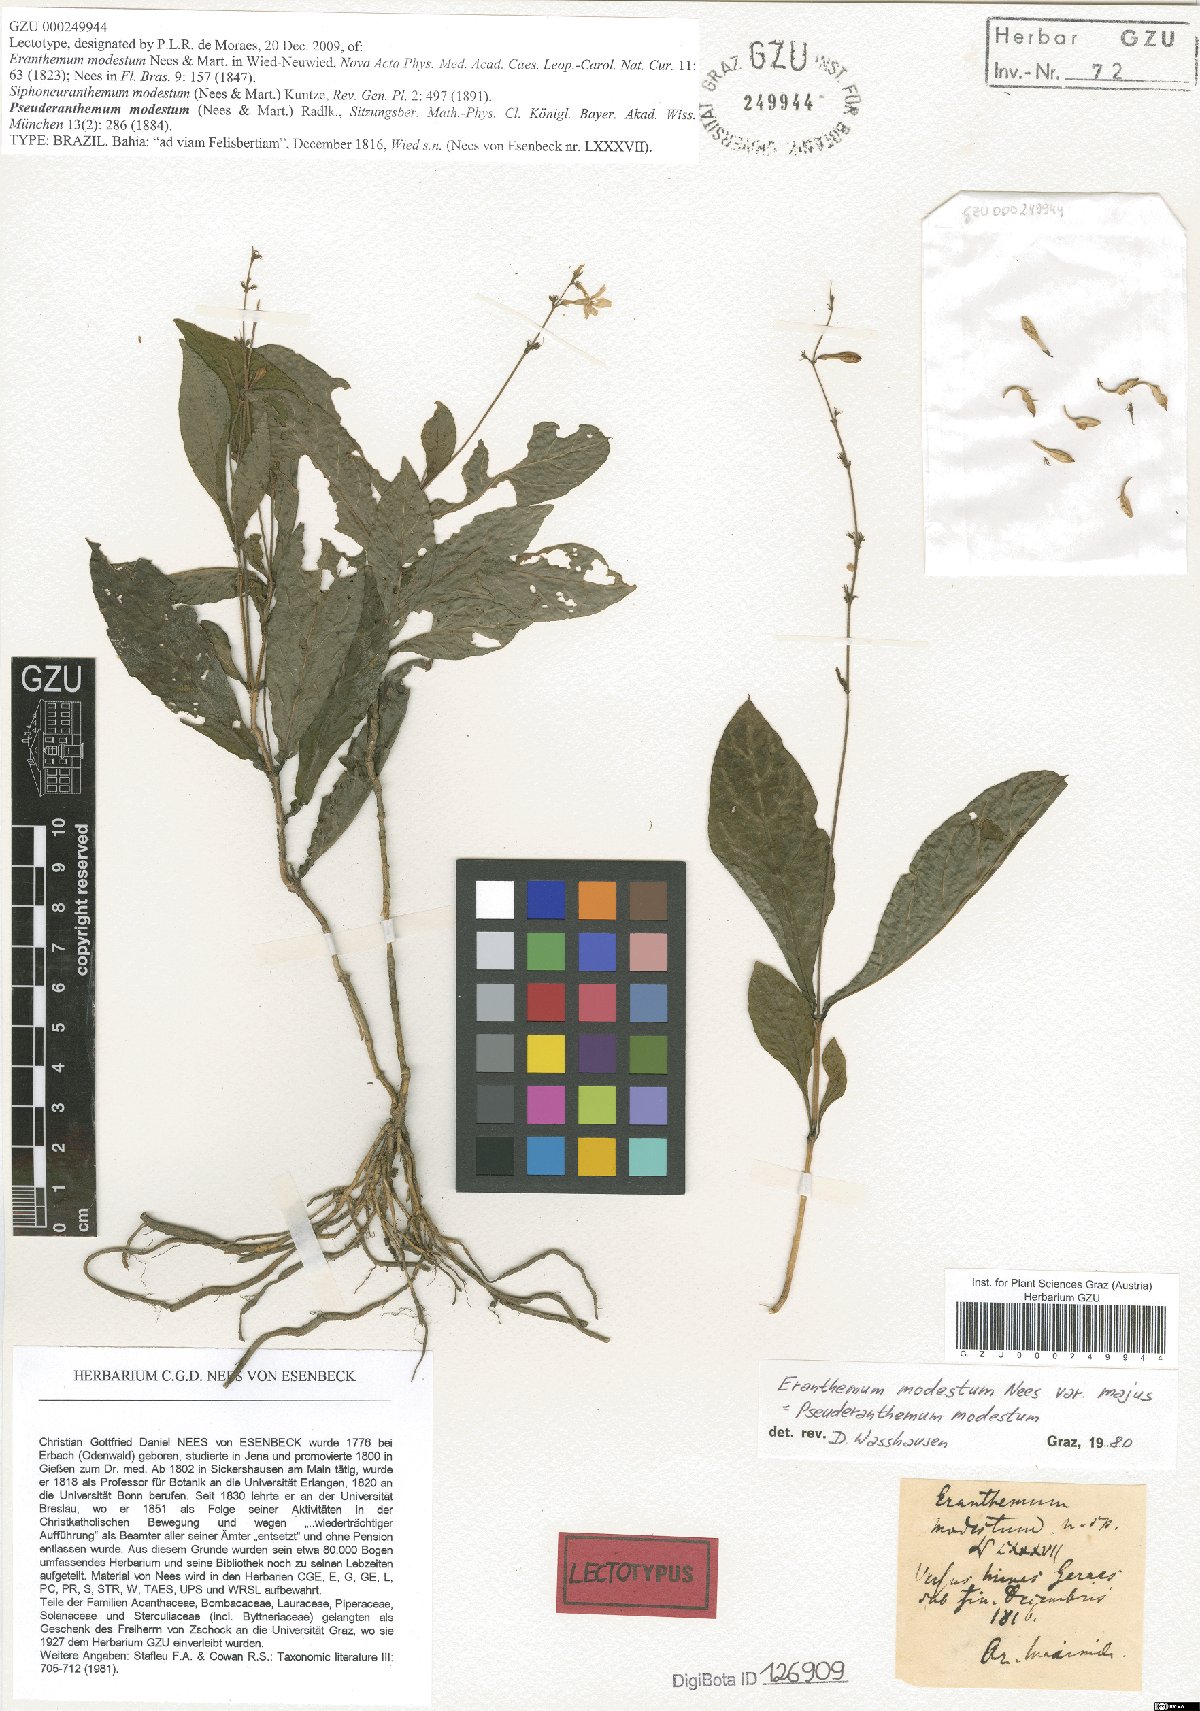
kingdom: Plantae
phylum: Tracheophyta
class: Magnoliopsida
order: Lamiales
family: Acanthaceae
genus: Pseuderanthemum
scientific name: Pseuderanthemum modestum
